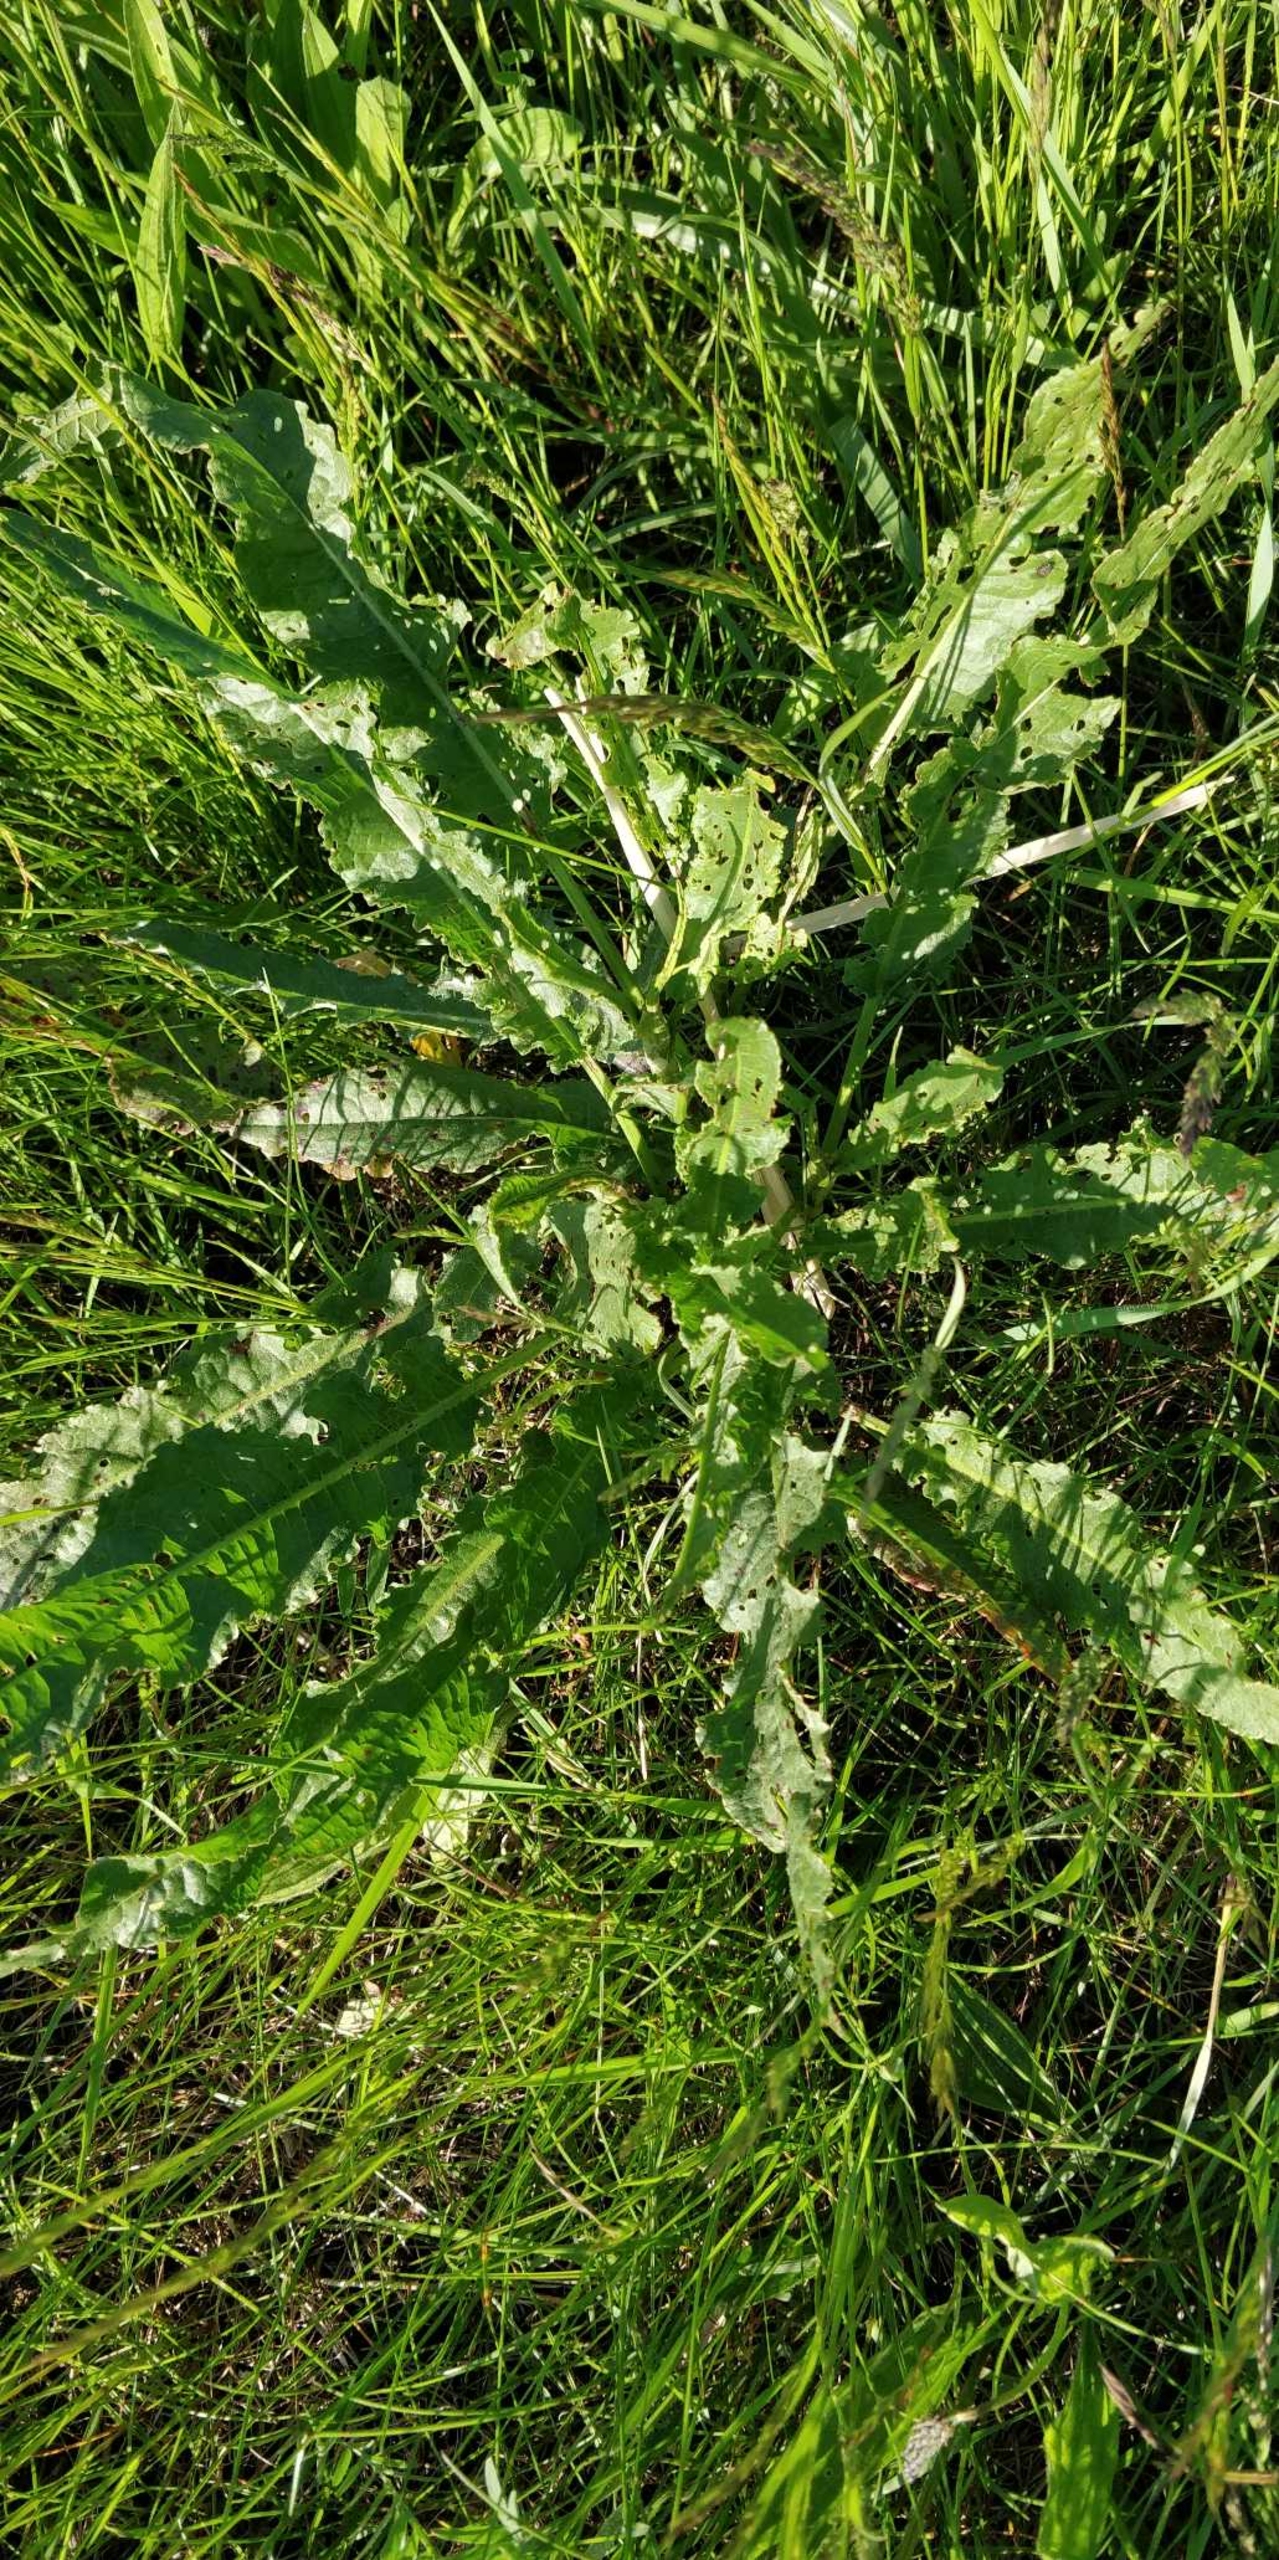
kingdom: Plantae
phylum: Tracheophyta
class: Magnoliopsida
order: Caryophyllales
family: Polygonaceae
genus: Rumex
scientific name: Rumex crispus
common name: Kruset skræppe
